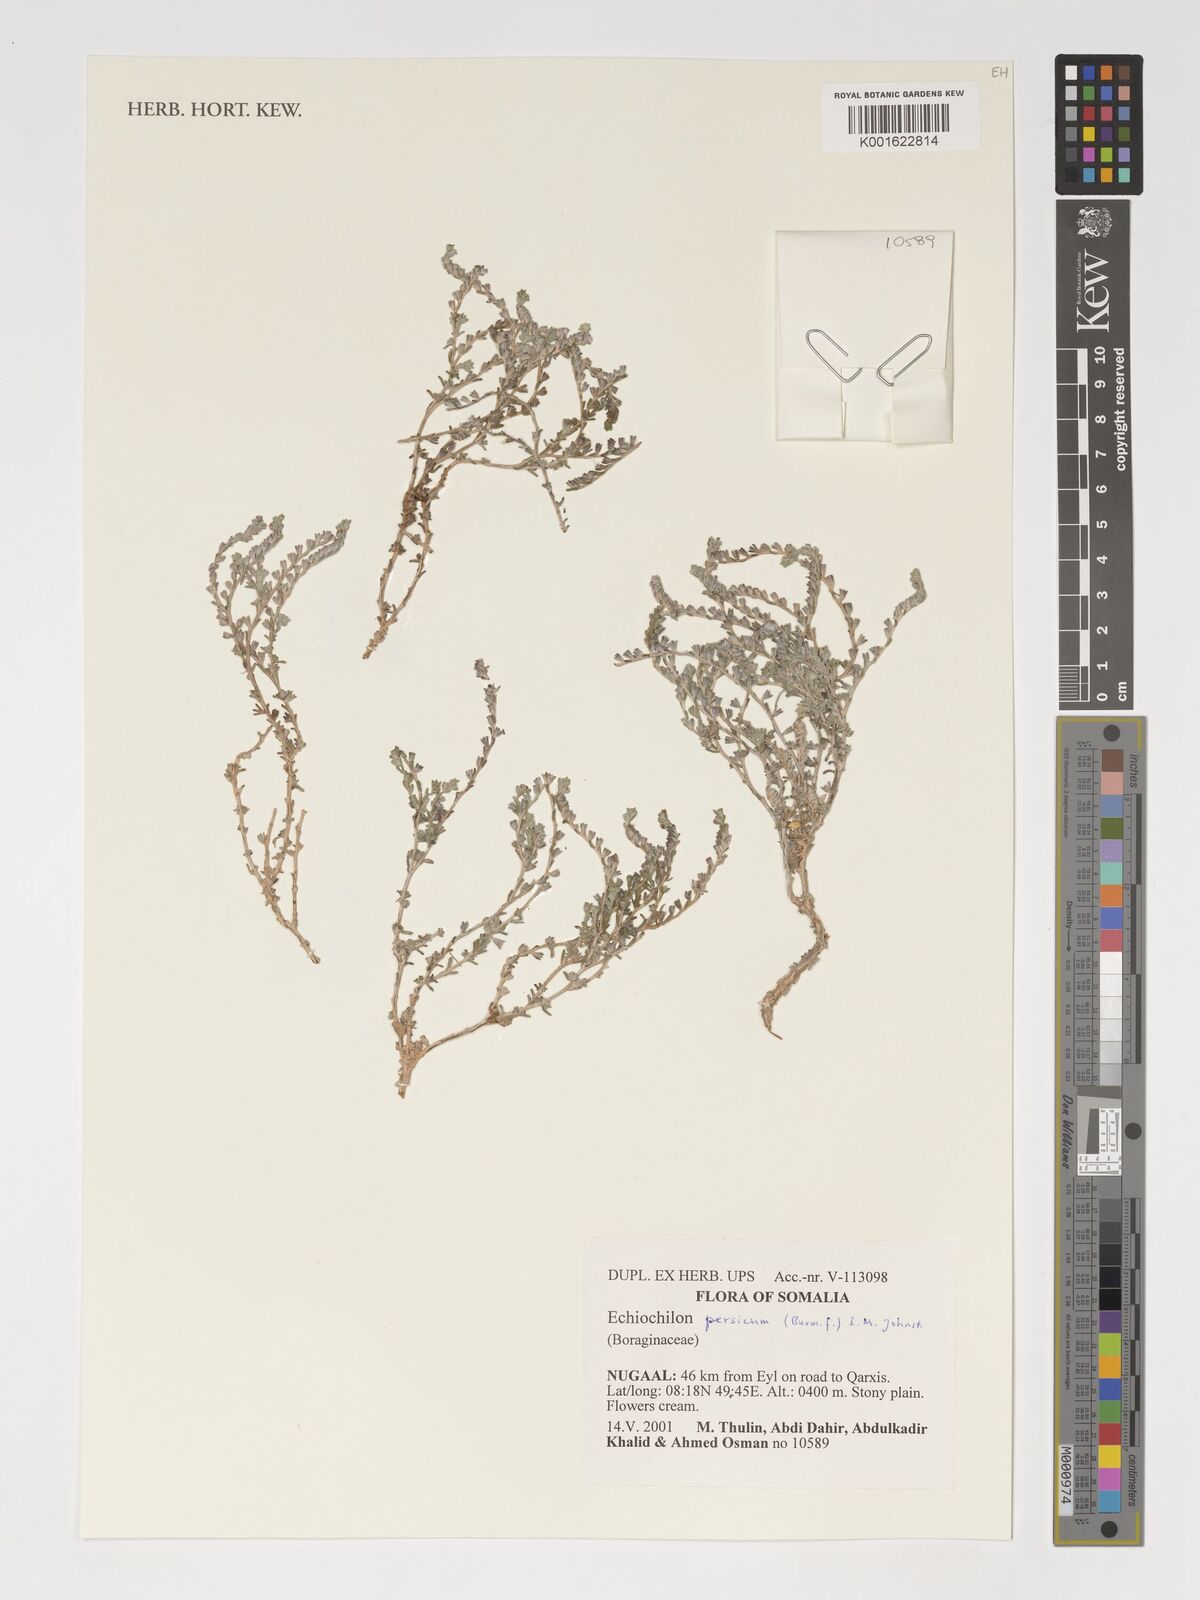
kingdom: Plantae
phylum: Tracheophyta
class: Magnoliopsida
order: Boraginales
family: Boraginaceae
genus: Echiochilon
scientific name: Echiochilon persicum
